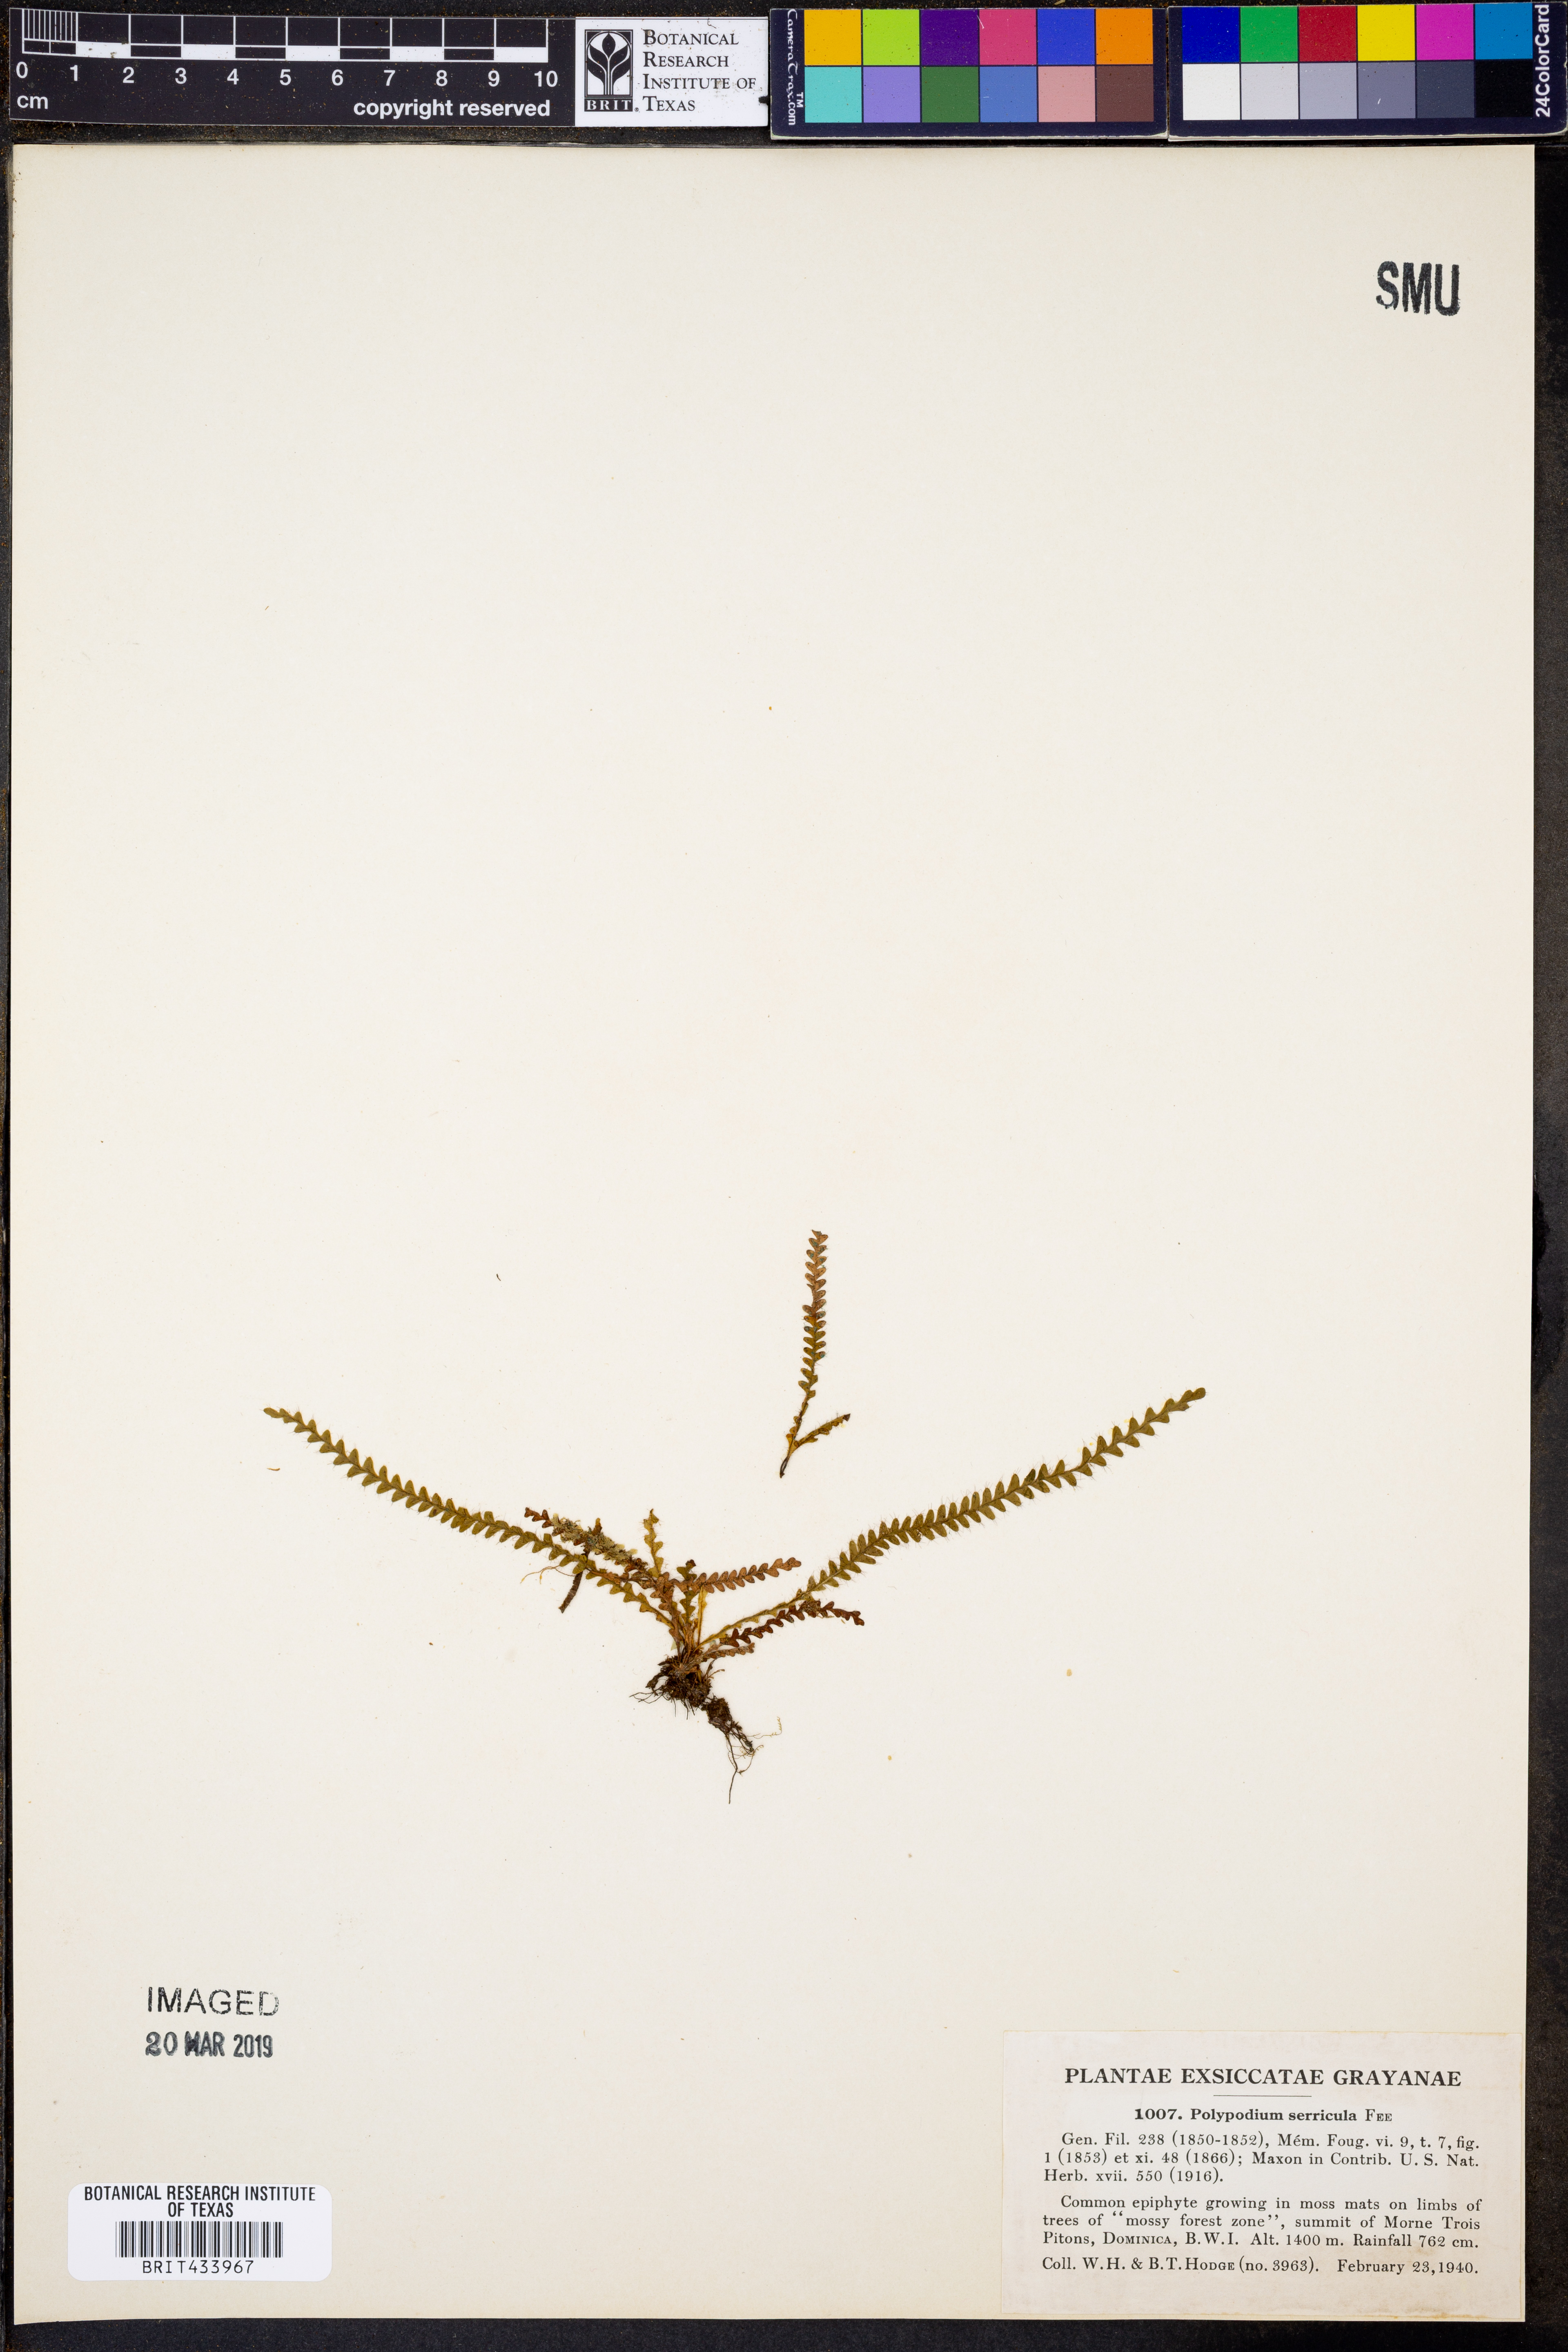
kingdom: Plantae
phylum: Tracheophyta
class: Polypodiopsida
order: Polypodiales
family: Polypodiaceae
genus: Moranopteris
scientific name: Moranopteris serricula
